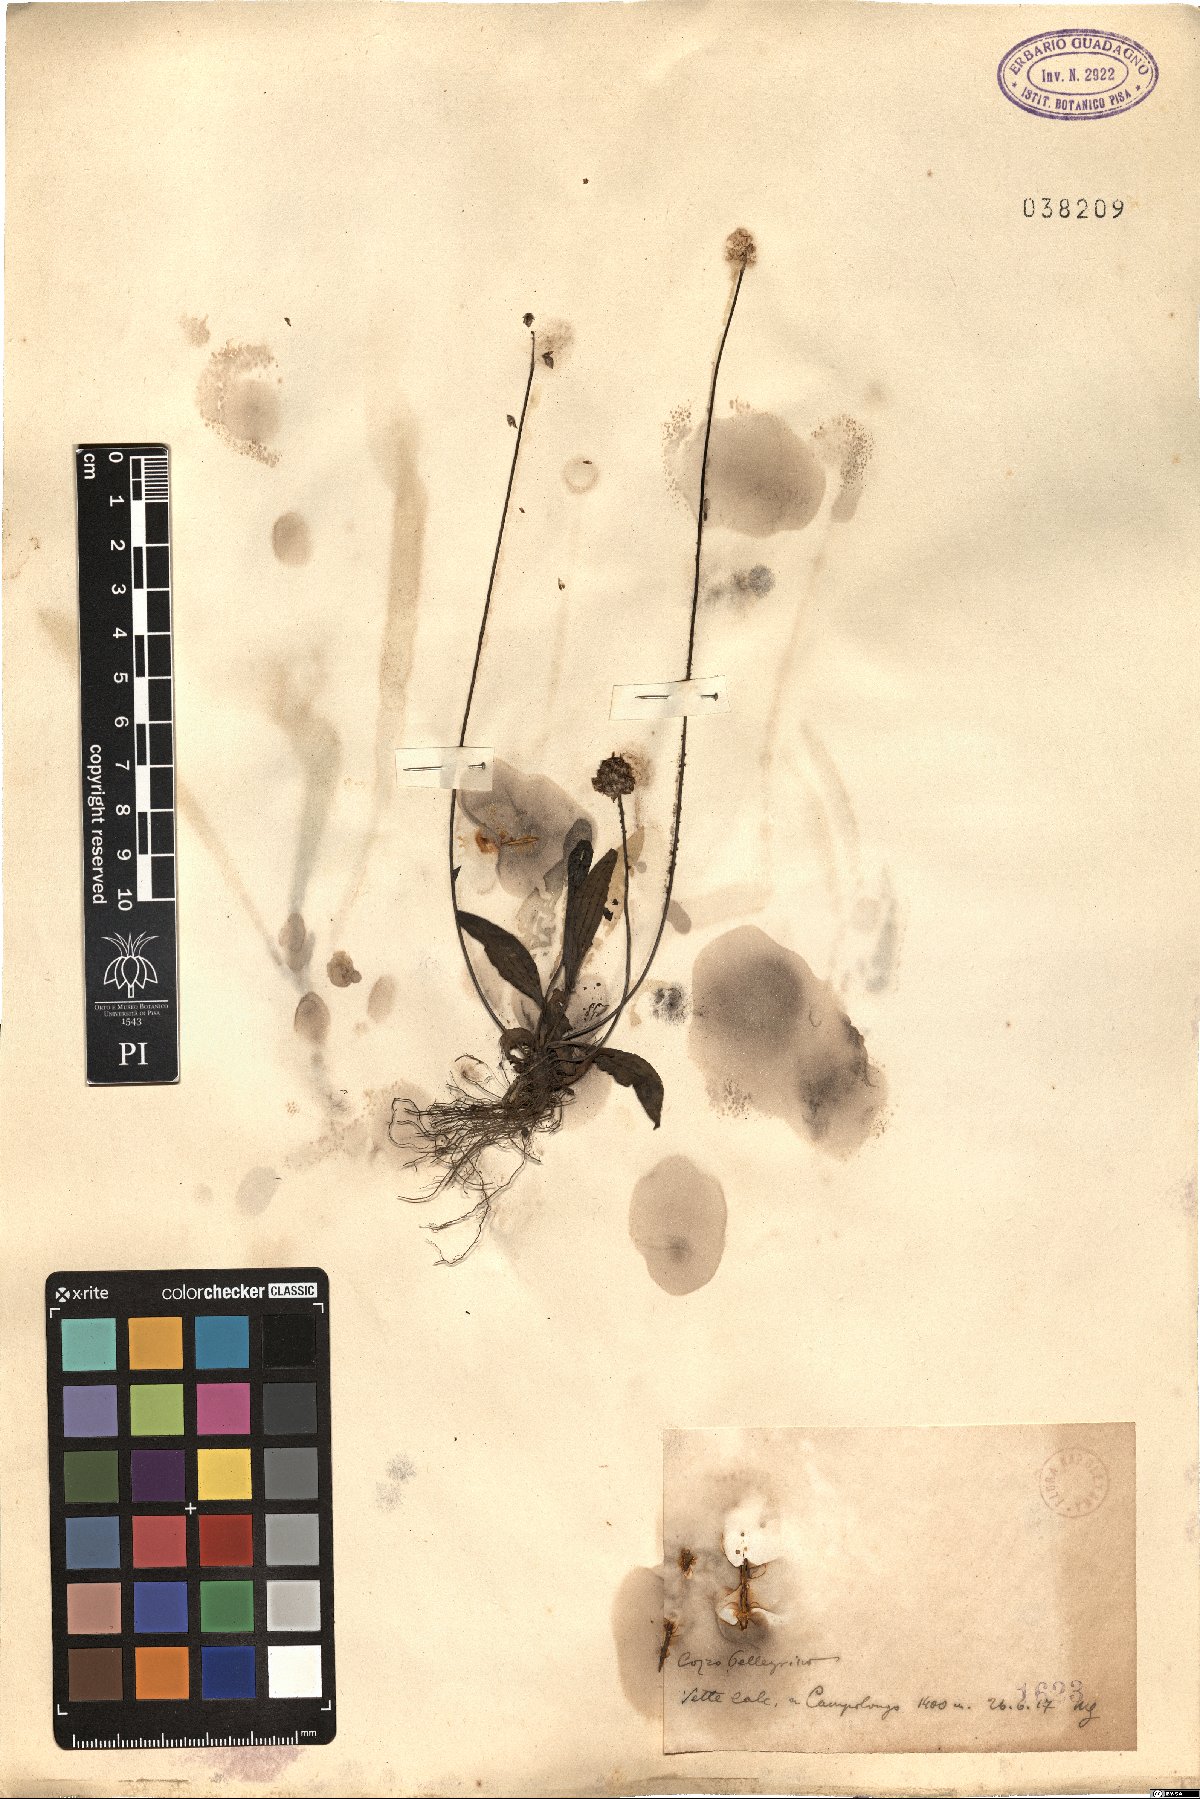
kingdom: Plantae
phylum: Tracheophyta
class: Magnoliopsida
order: Lamiales
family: Plantaginaceae
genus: Plantago
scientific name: Plantago
